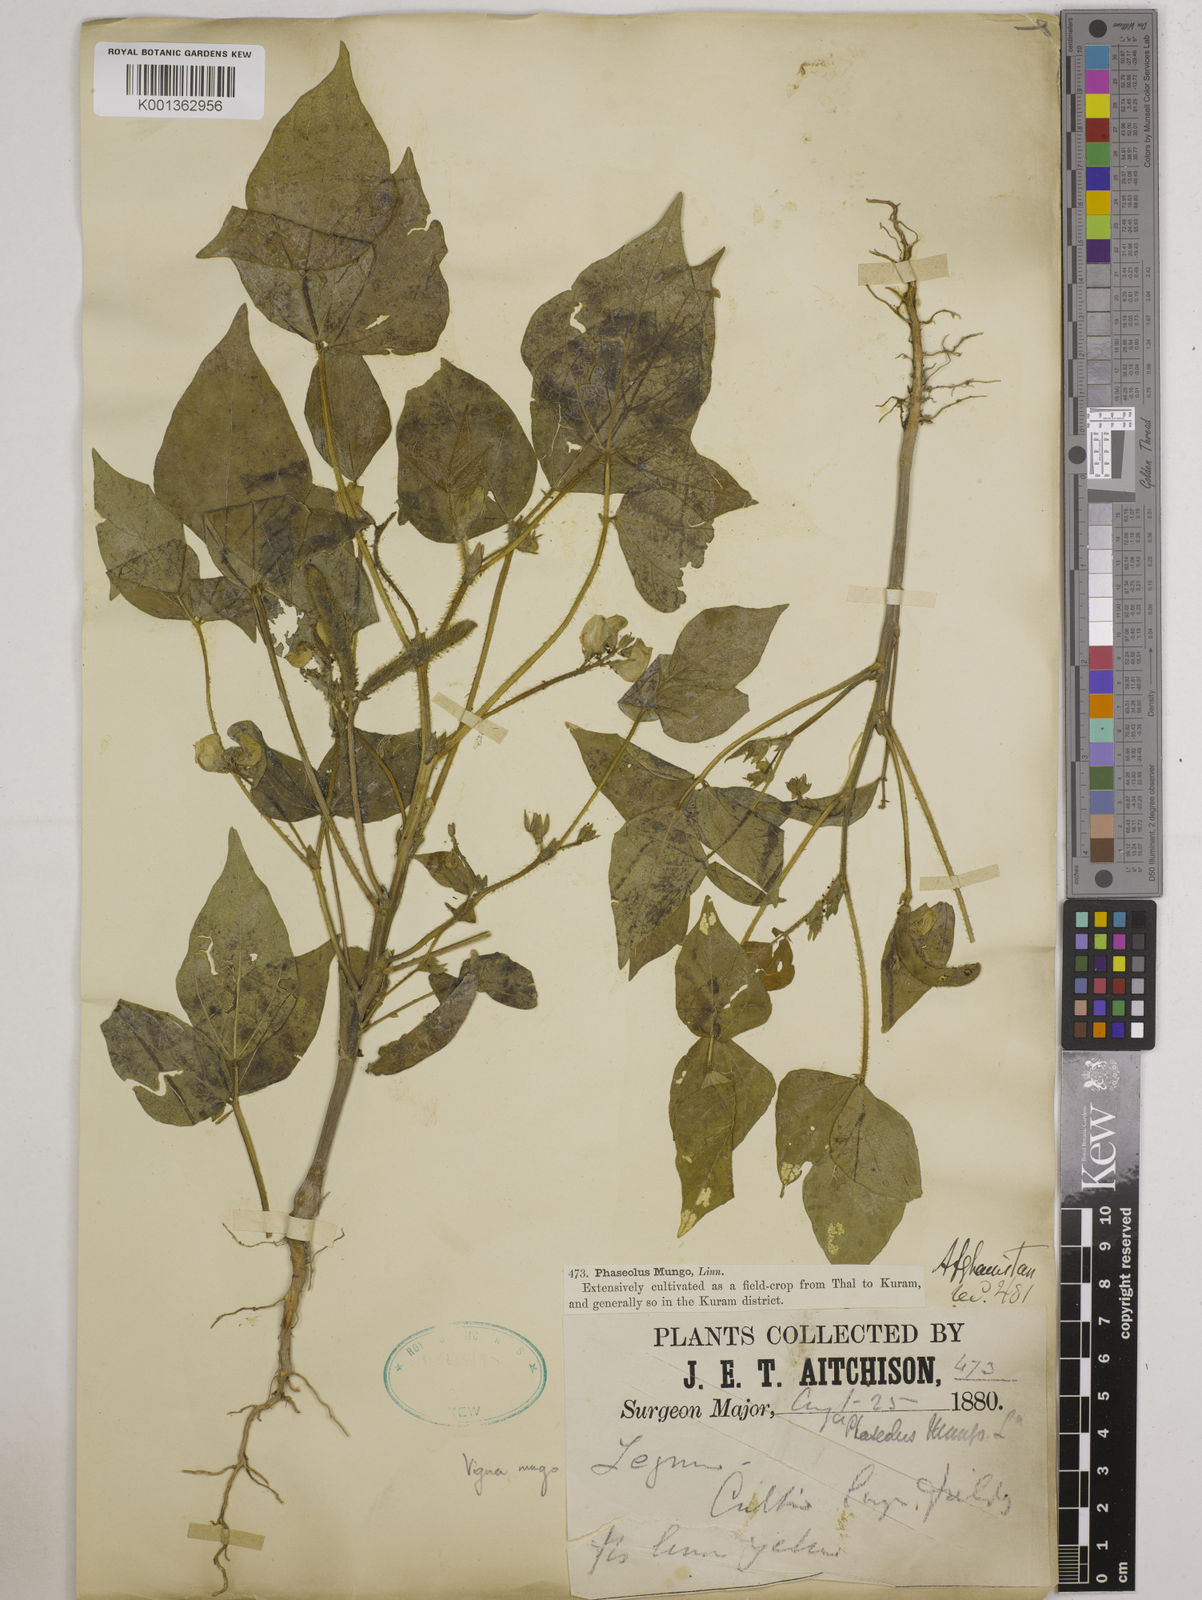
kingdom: Plantae
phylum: Tracheophyta
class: Magnoliopsida
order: Fabales
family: Fabaceae
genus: Vigna
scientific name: Vigna mungo
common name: Black gram
